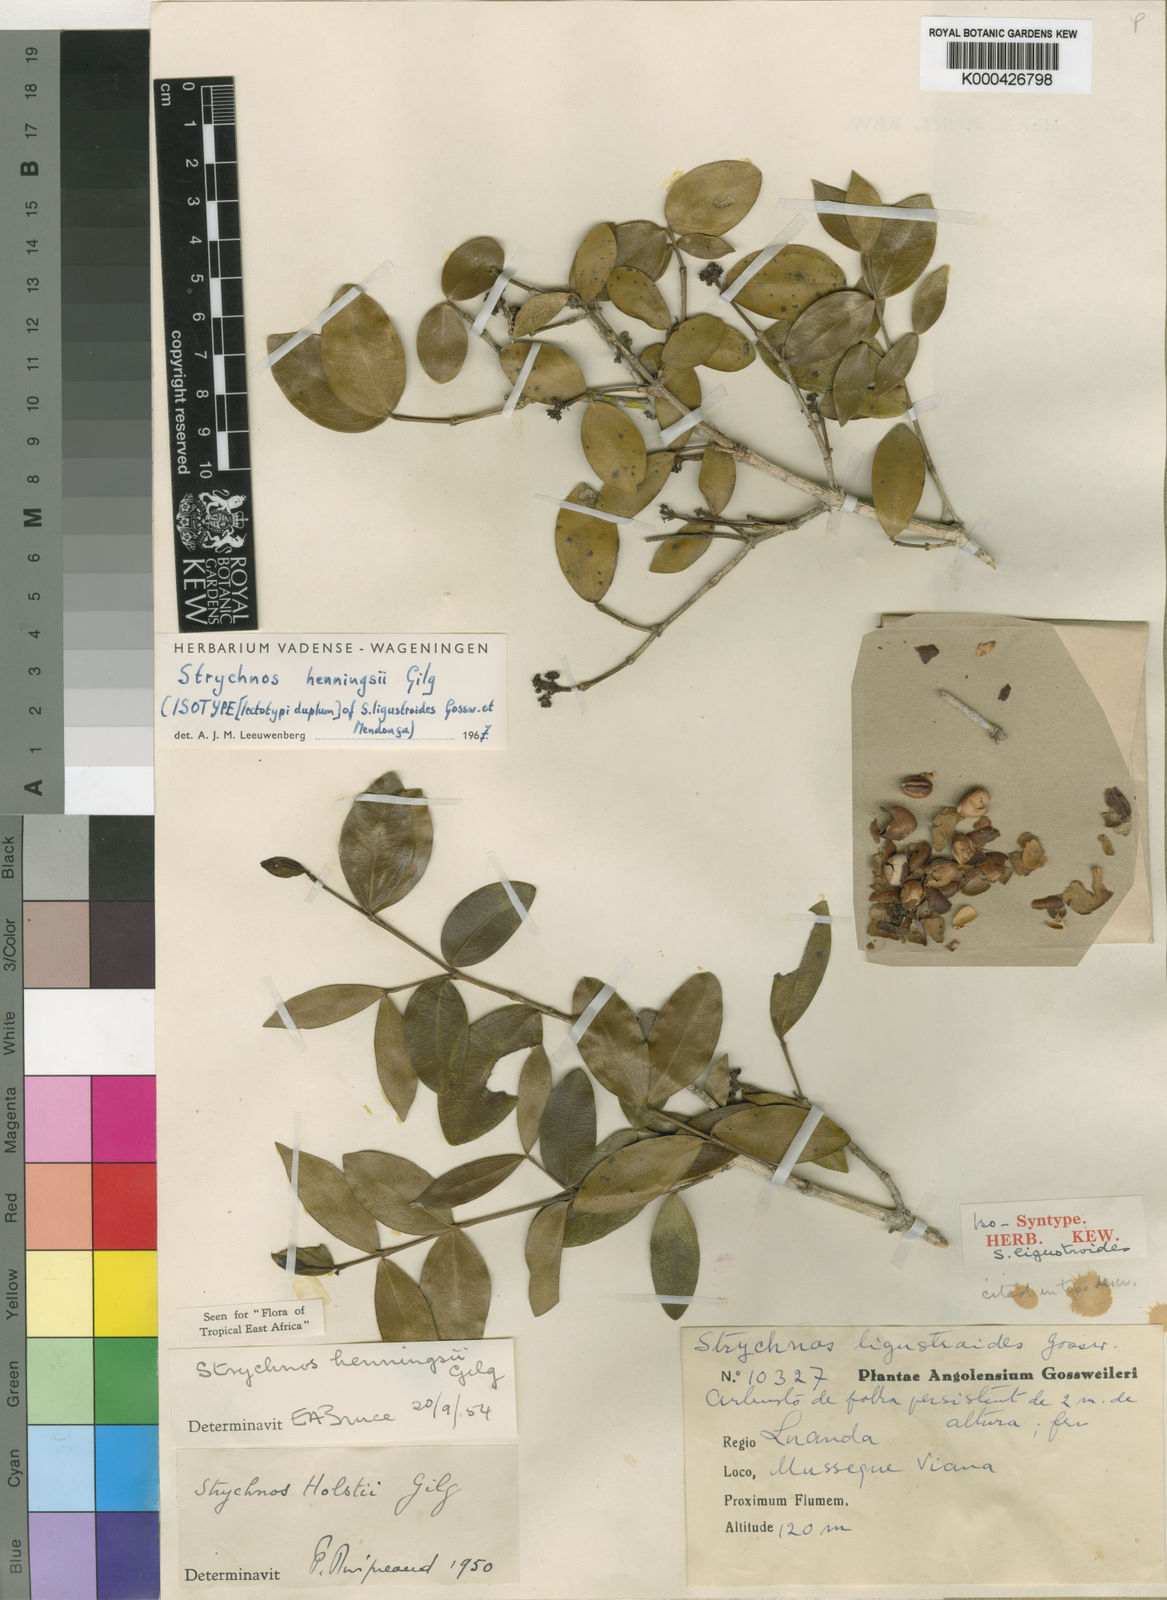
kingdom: Plantae
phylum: Tracheophyta
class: Magnoliopsida
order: Gentianales
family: Loganiaceae
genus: Strychnos
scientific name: Strychnos henningsii
